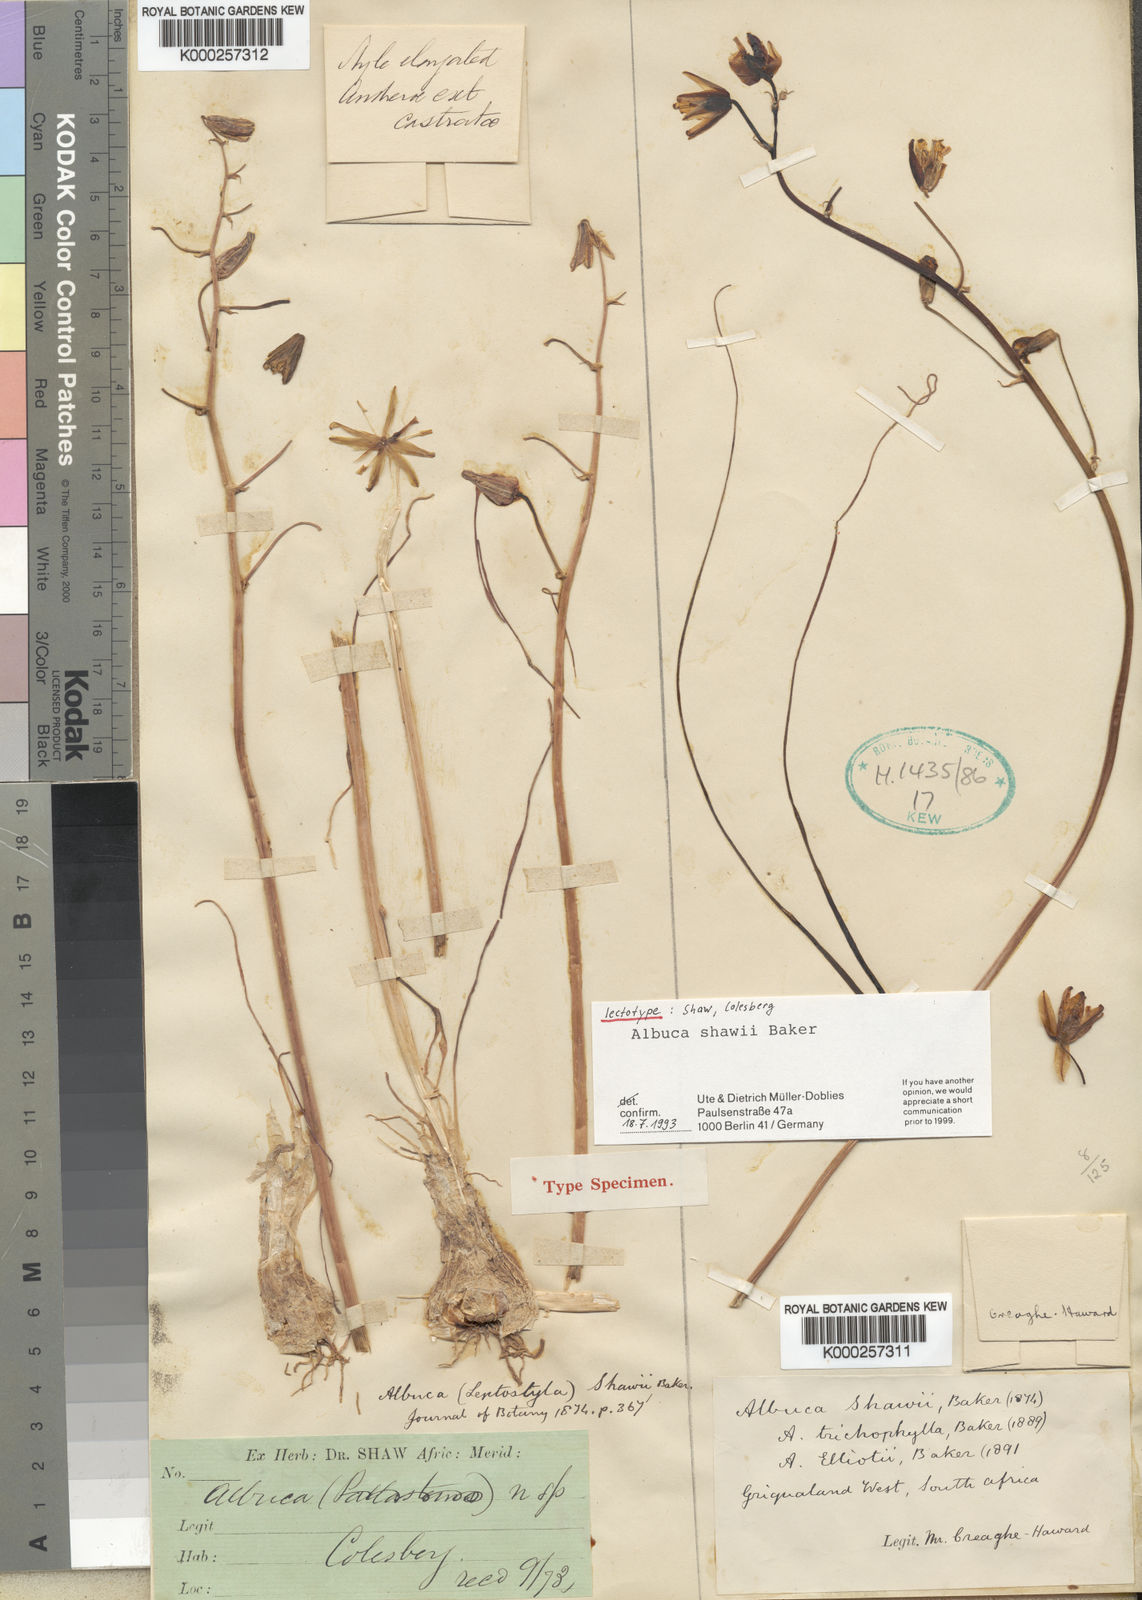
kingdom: Plantae
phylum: Tracheophyta
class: Liliopsida
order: Asparagales
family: Asparagaceae
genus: Albuca
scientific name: Albuca shawii
